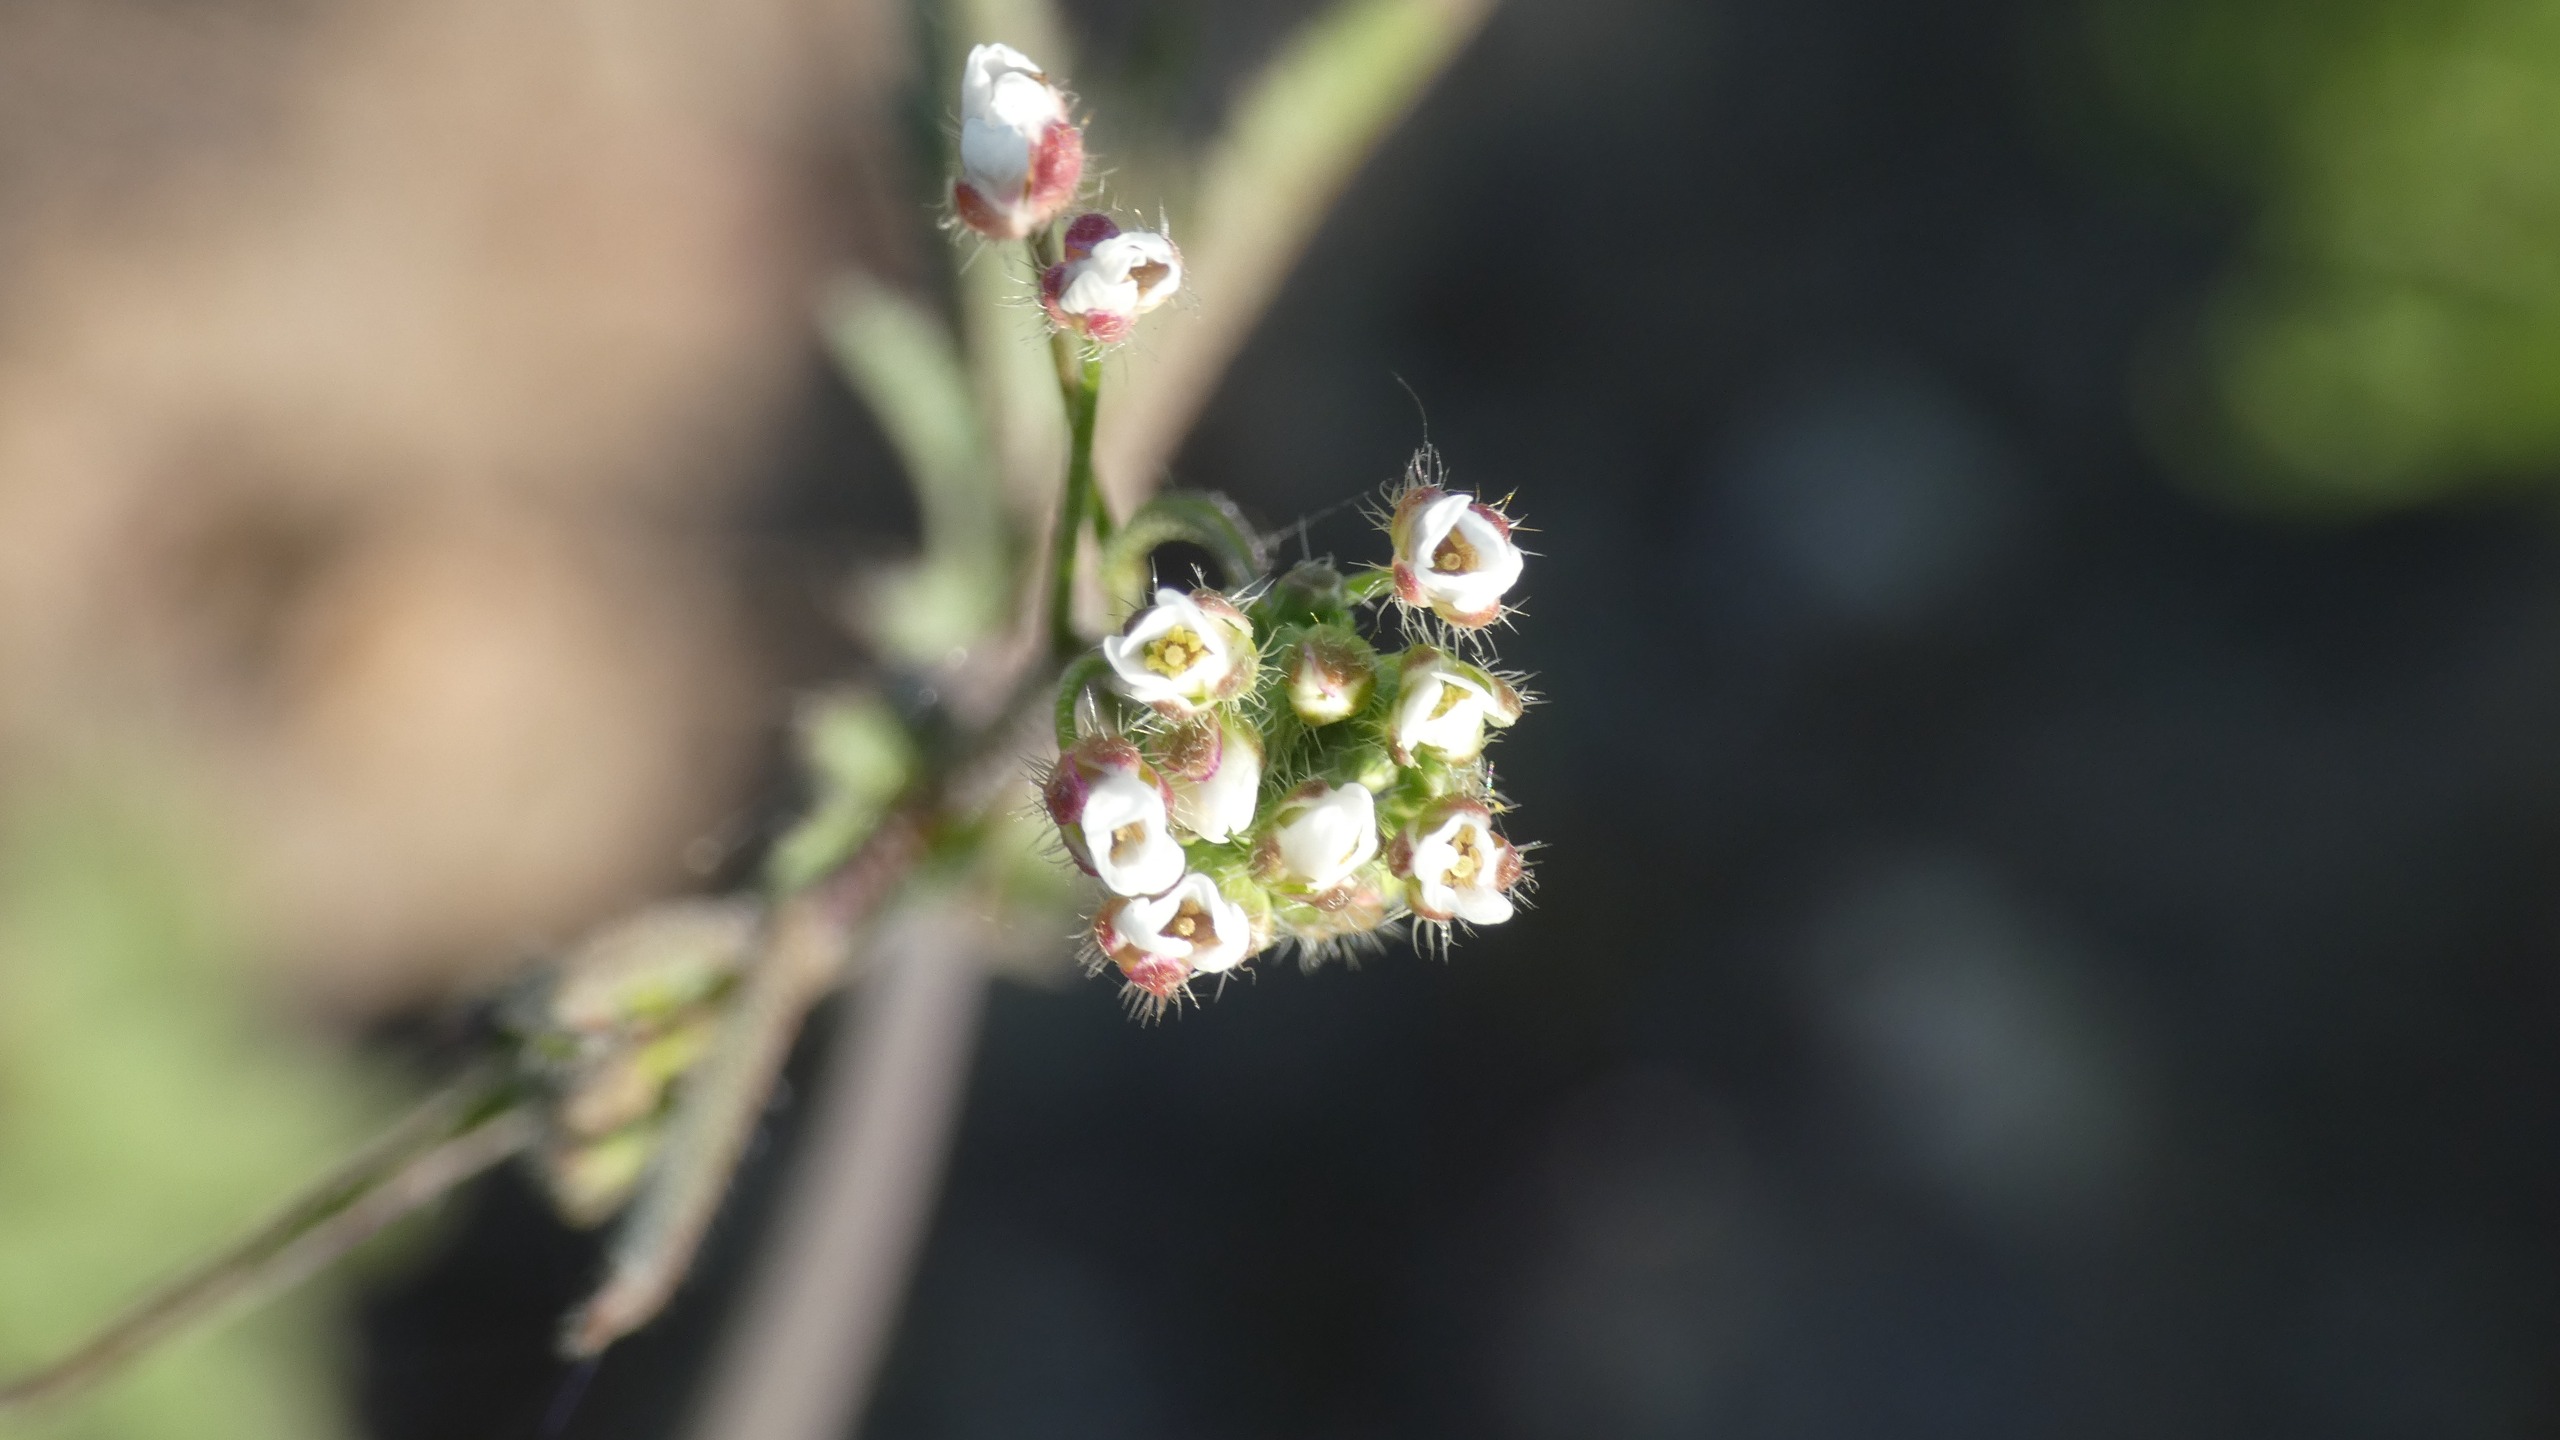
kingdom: Plantae
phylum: Tracheophyta
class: Magnoliopsida
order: Brassicales
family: Brassicaceae
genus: Capsella
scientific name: Capsella bursa-pastoris
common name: Hyrdetaske
